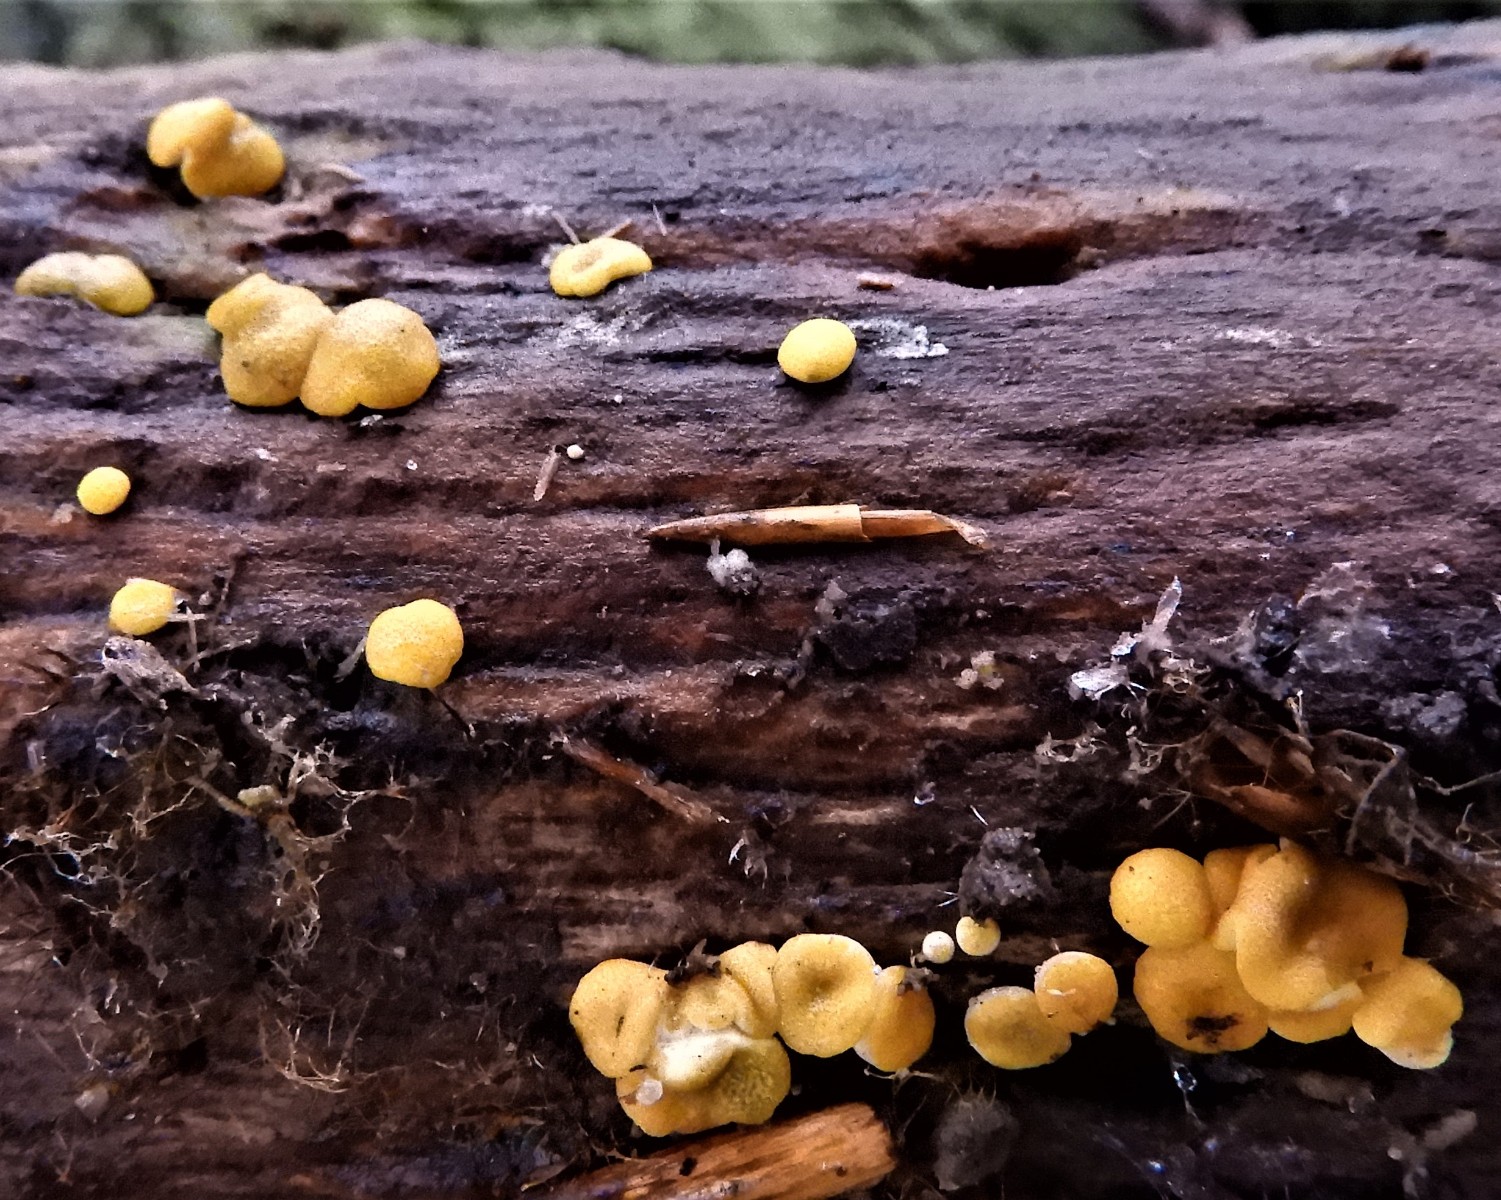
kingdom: Fungi
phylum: Ascomycota
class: Sordariomycetes
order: Hypocreales
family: Hypocreaceae
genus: Trichoderma
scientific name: Trichoderma aureoviride
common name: æggegul kødkerne
